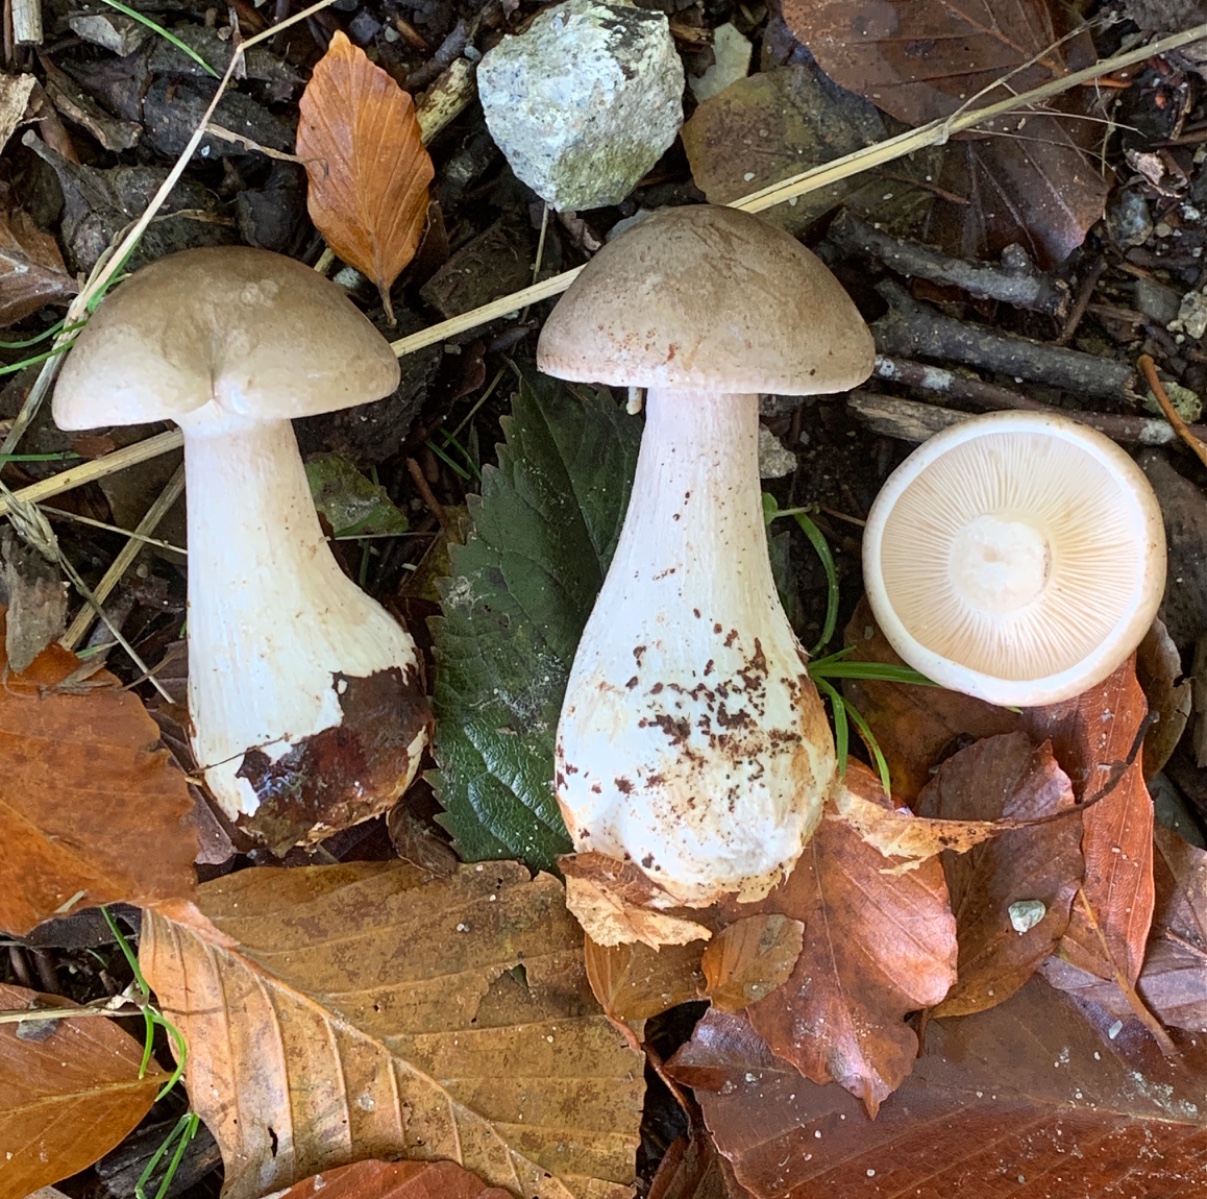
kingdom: Fungi
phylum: Basidiomycota
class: Agaricomycetes
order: Agaricales
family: Tricholomataceae
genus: Clitocybe
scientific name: Clitocybe nebularis
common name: tåge-tragthat
